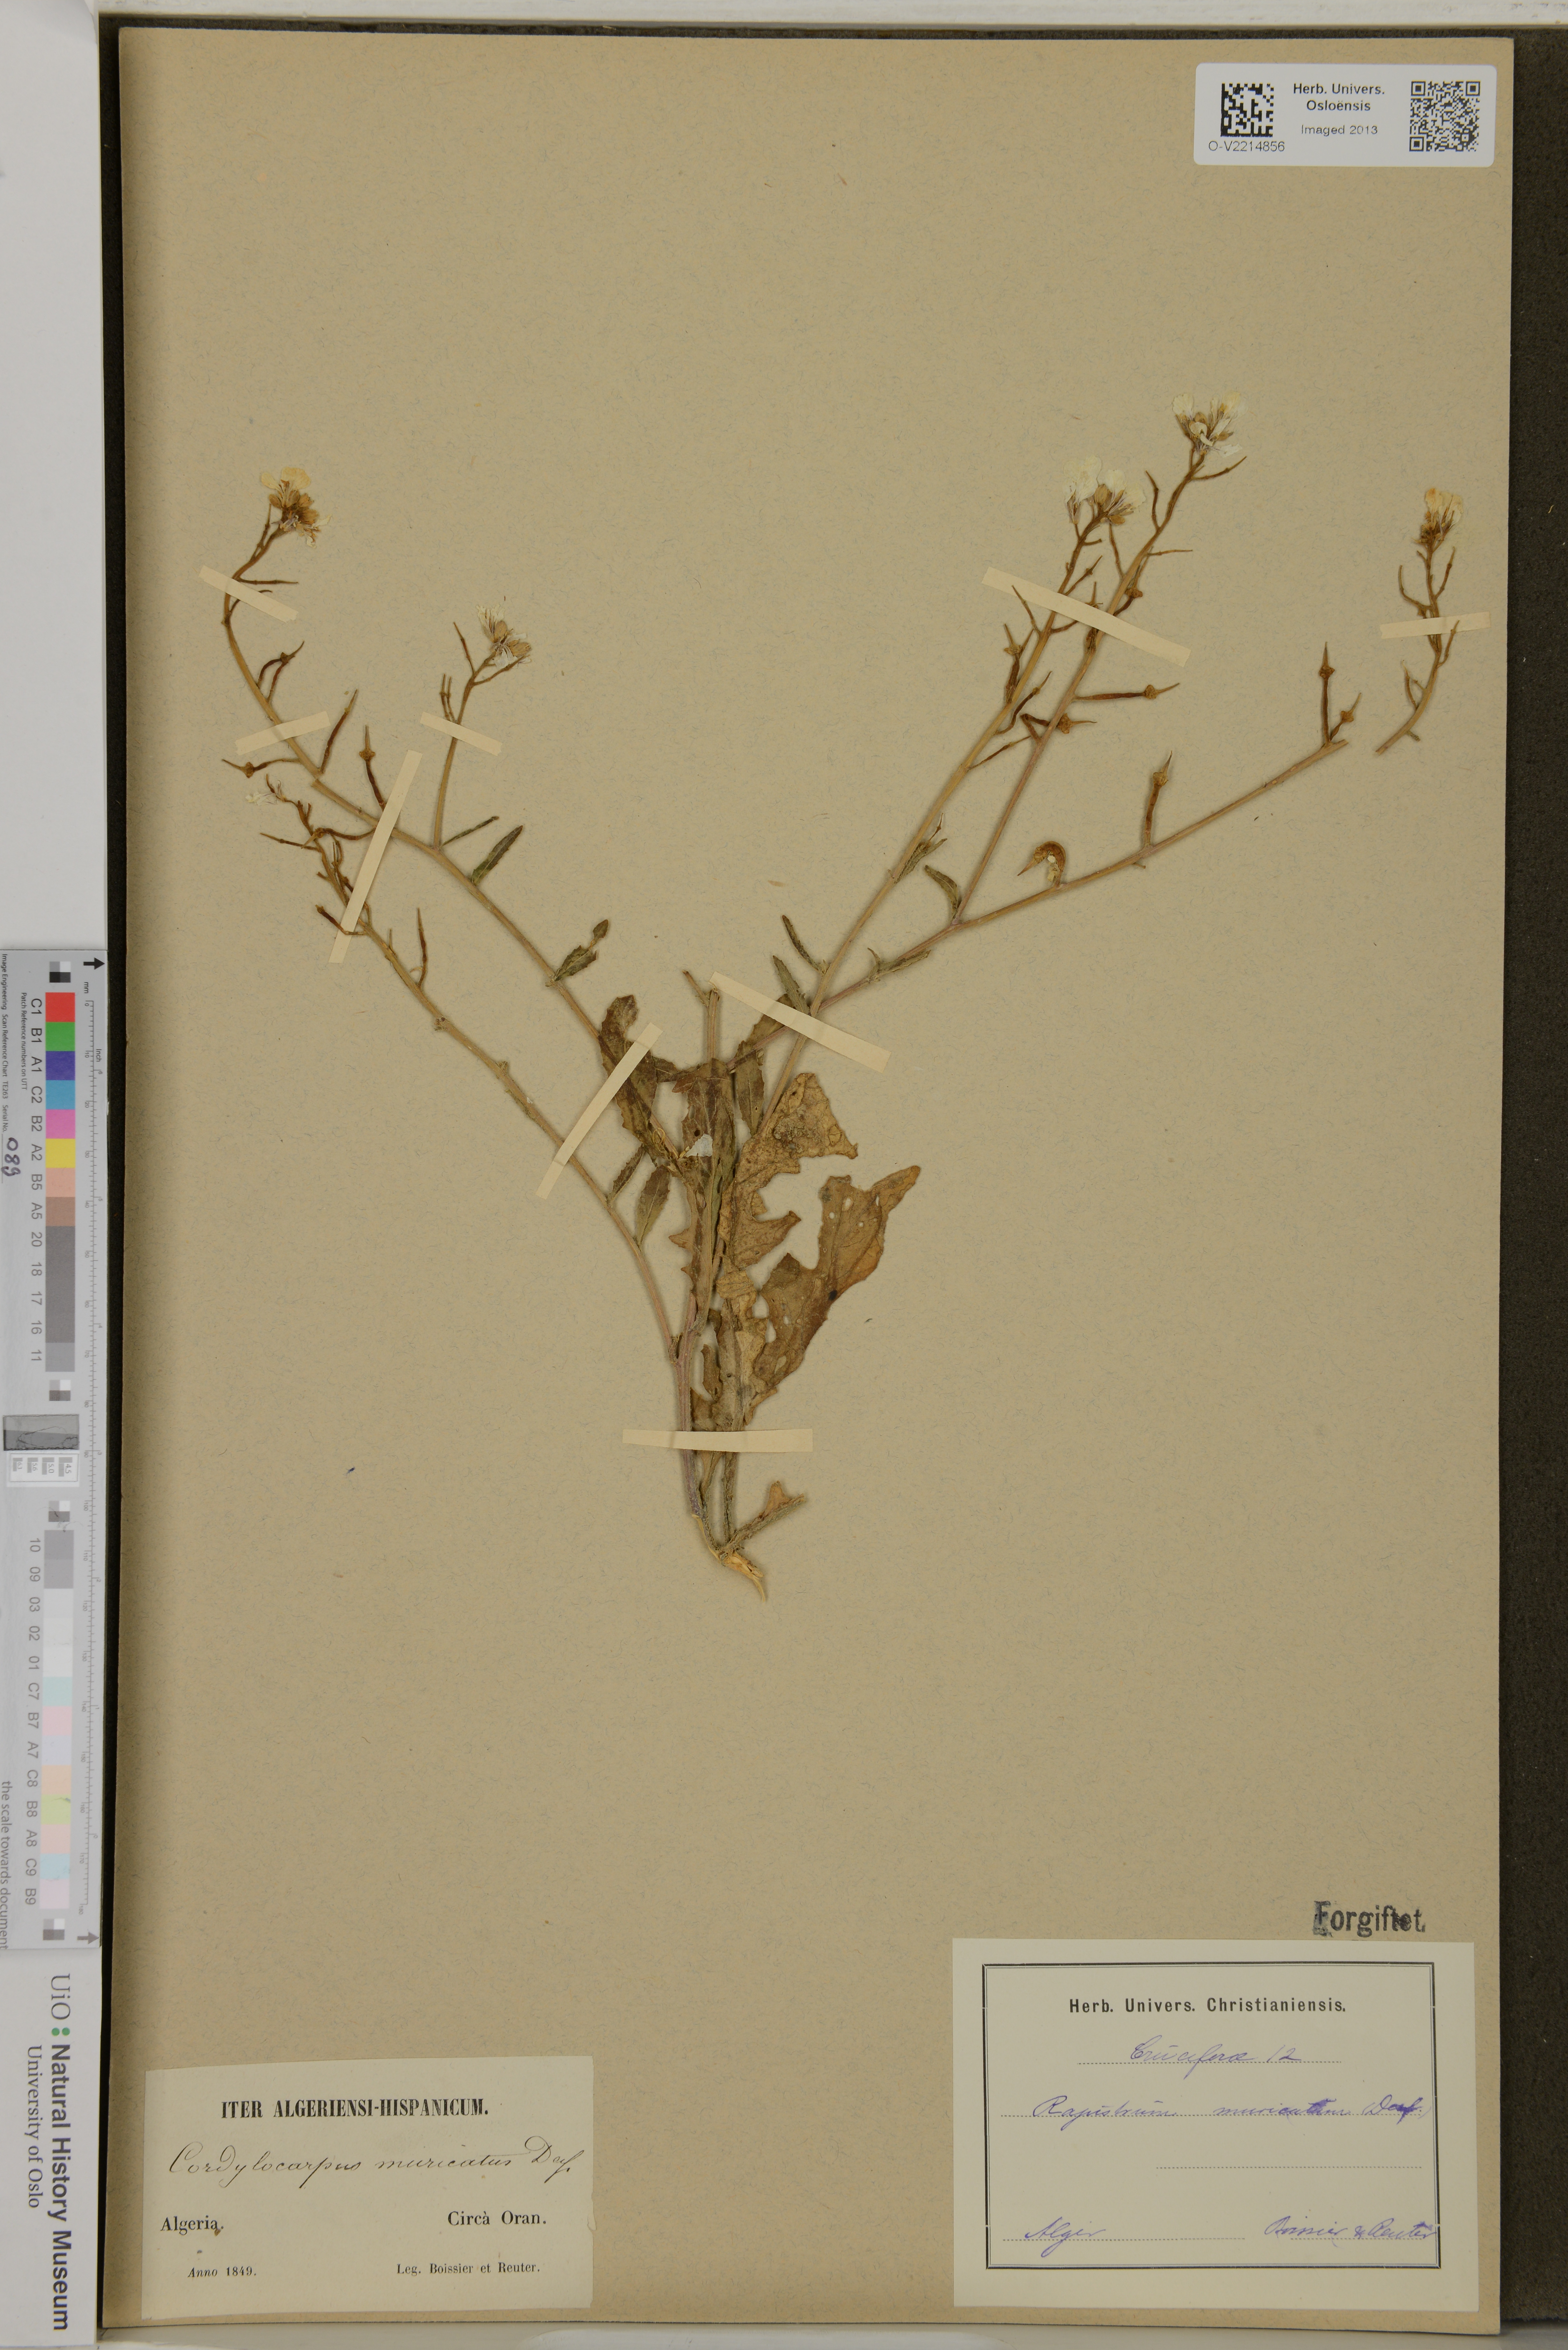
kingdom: Plantae
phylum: Tracheophyta
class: Magnoliopsida
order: Brassicales
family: Brassicaceae
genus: Cordylocarpus
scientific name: Cordylocarpus muricatus
